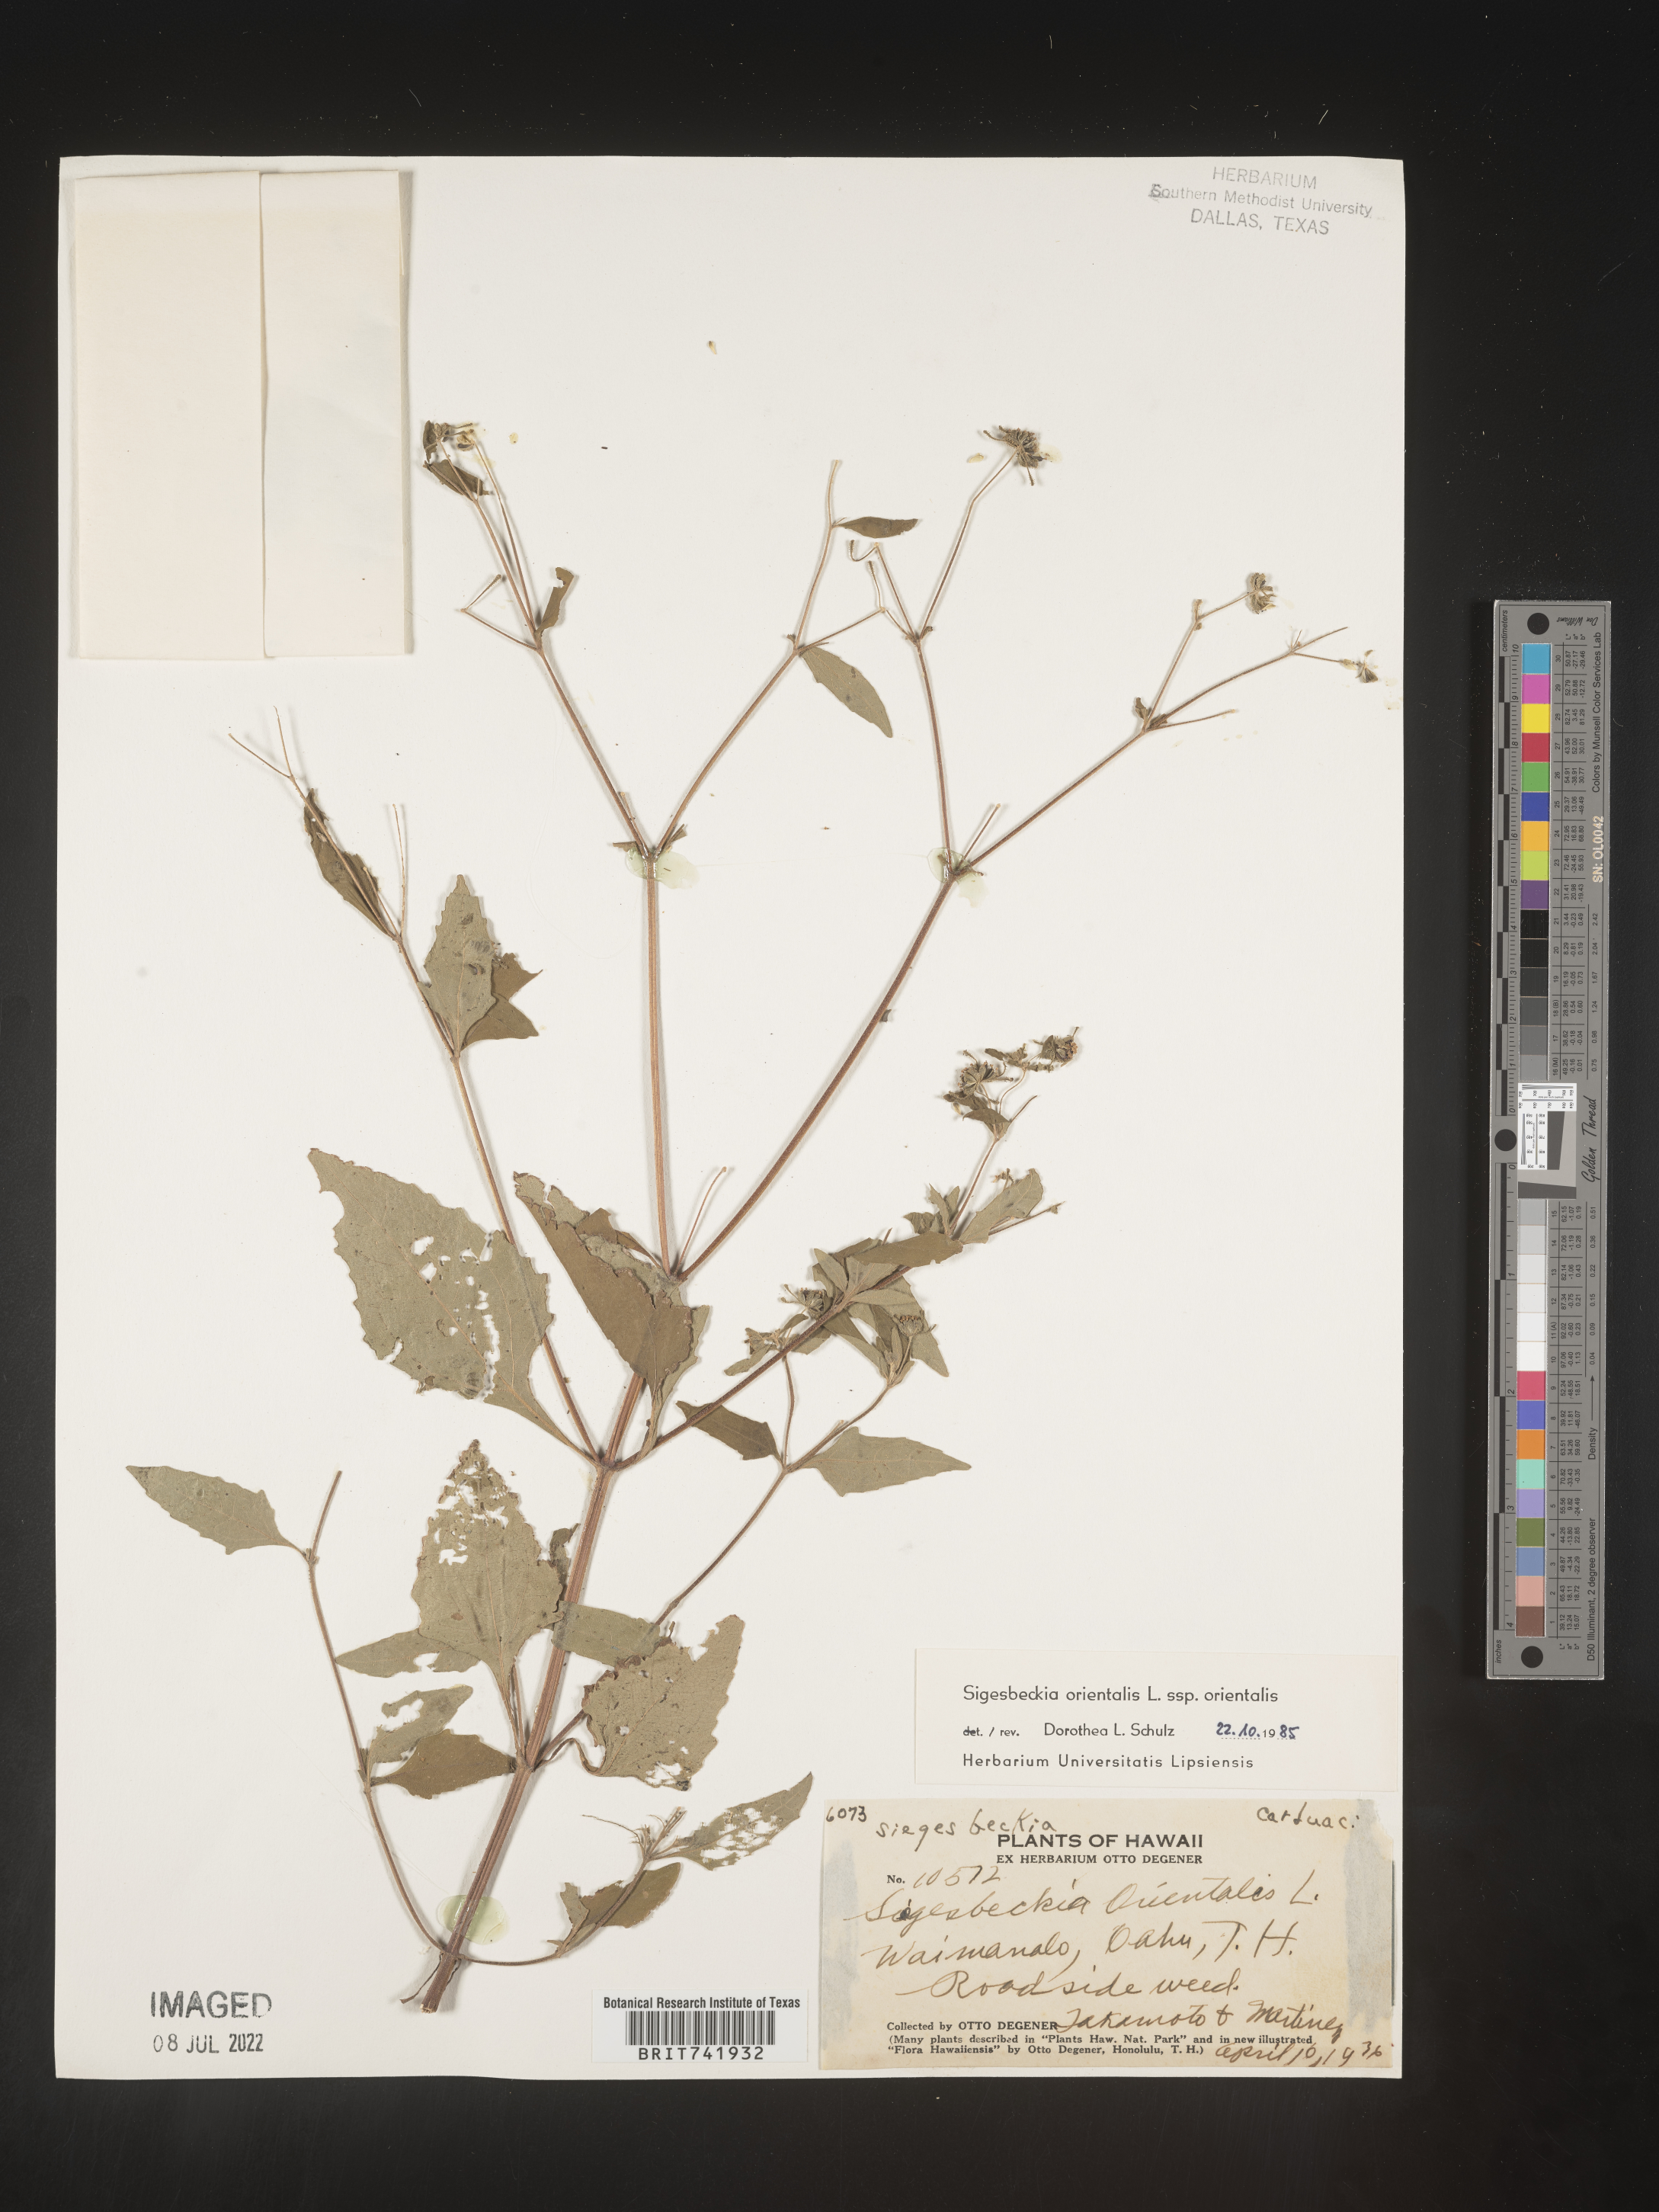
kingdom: Plantae
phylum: Tracheophyta
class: Magnoliopsida
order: Asterales
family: Asteraceae
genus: Sigesbeckia
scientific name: Sigesbeckia
